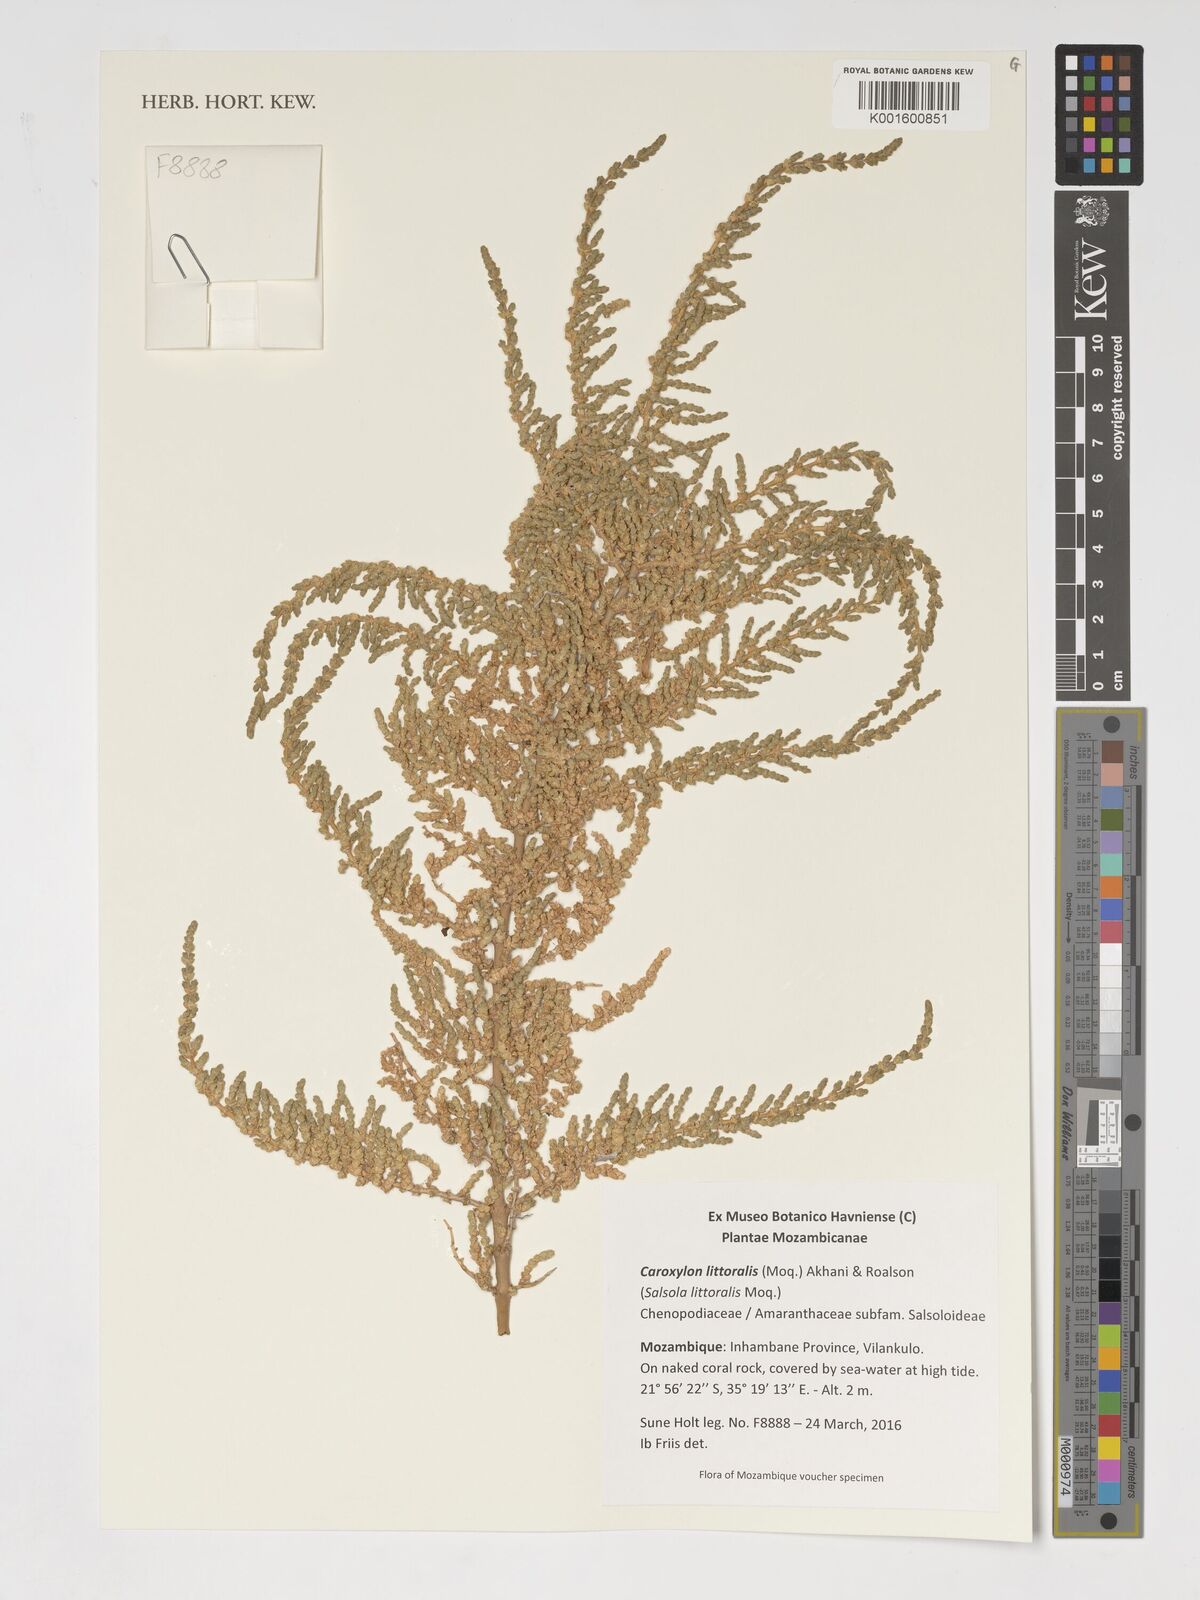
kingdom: Plantae
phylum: Tracheophyta
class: Magnoliopsida
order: Caryophyllales
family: Amaranthaceae
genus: Caroxylon
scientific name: Caroxylon littoralis
